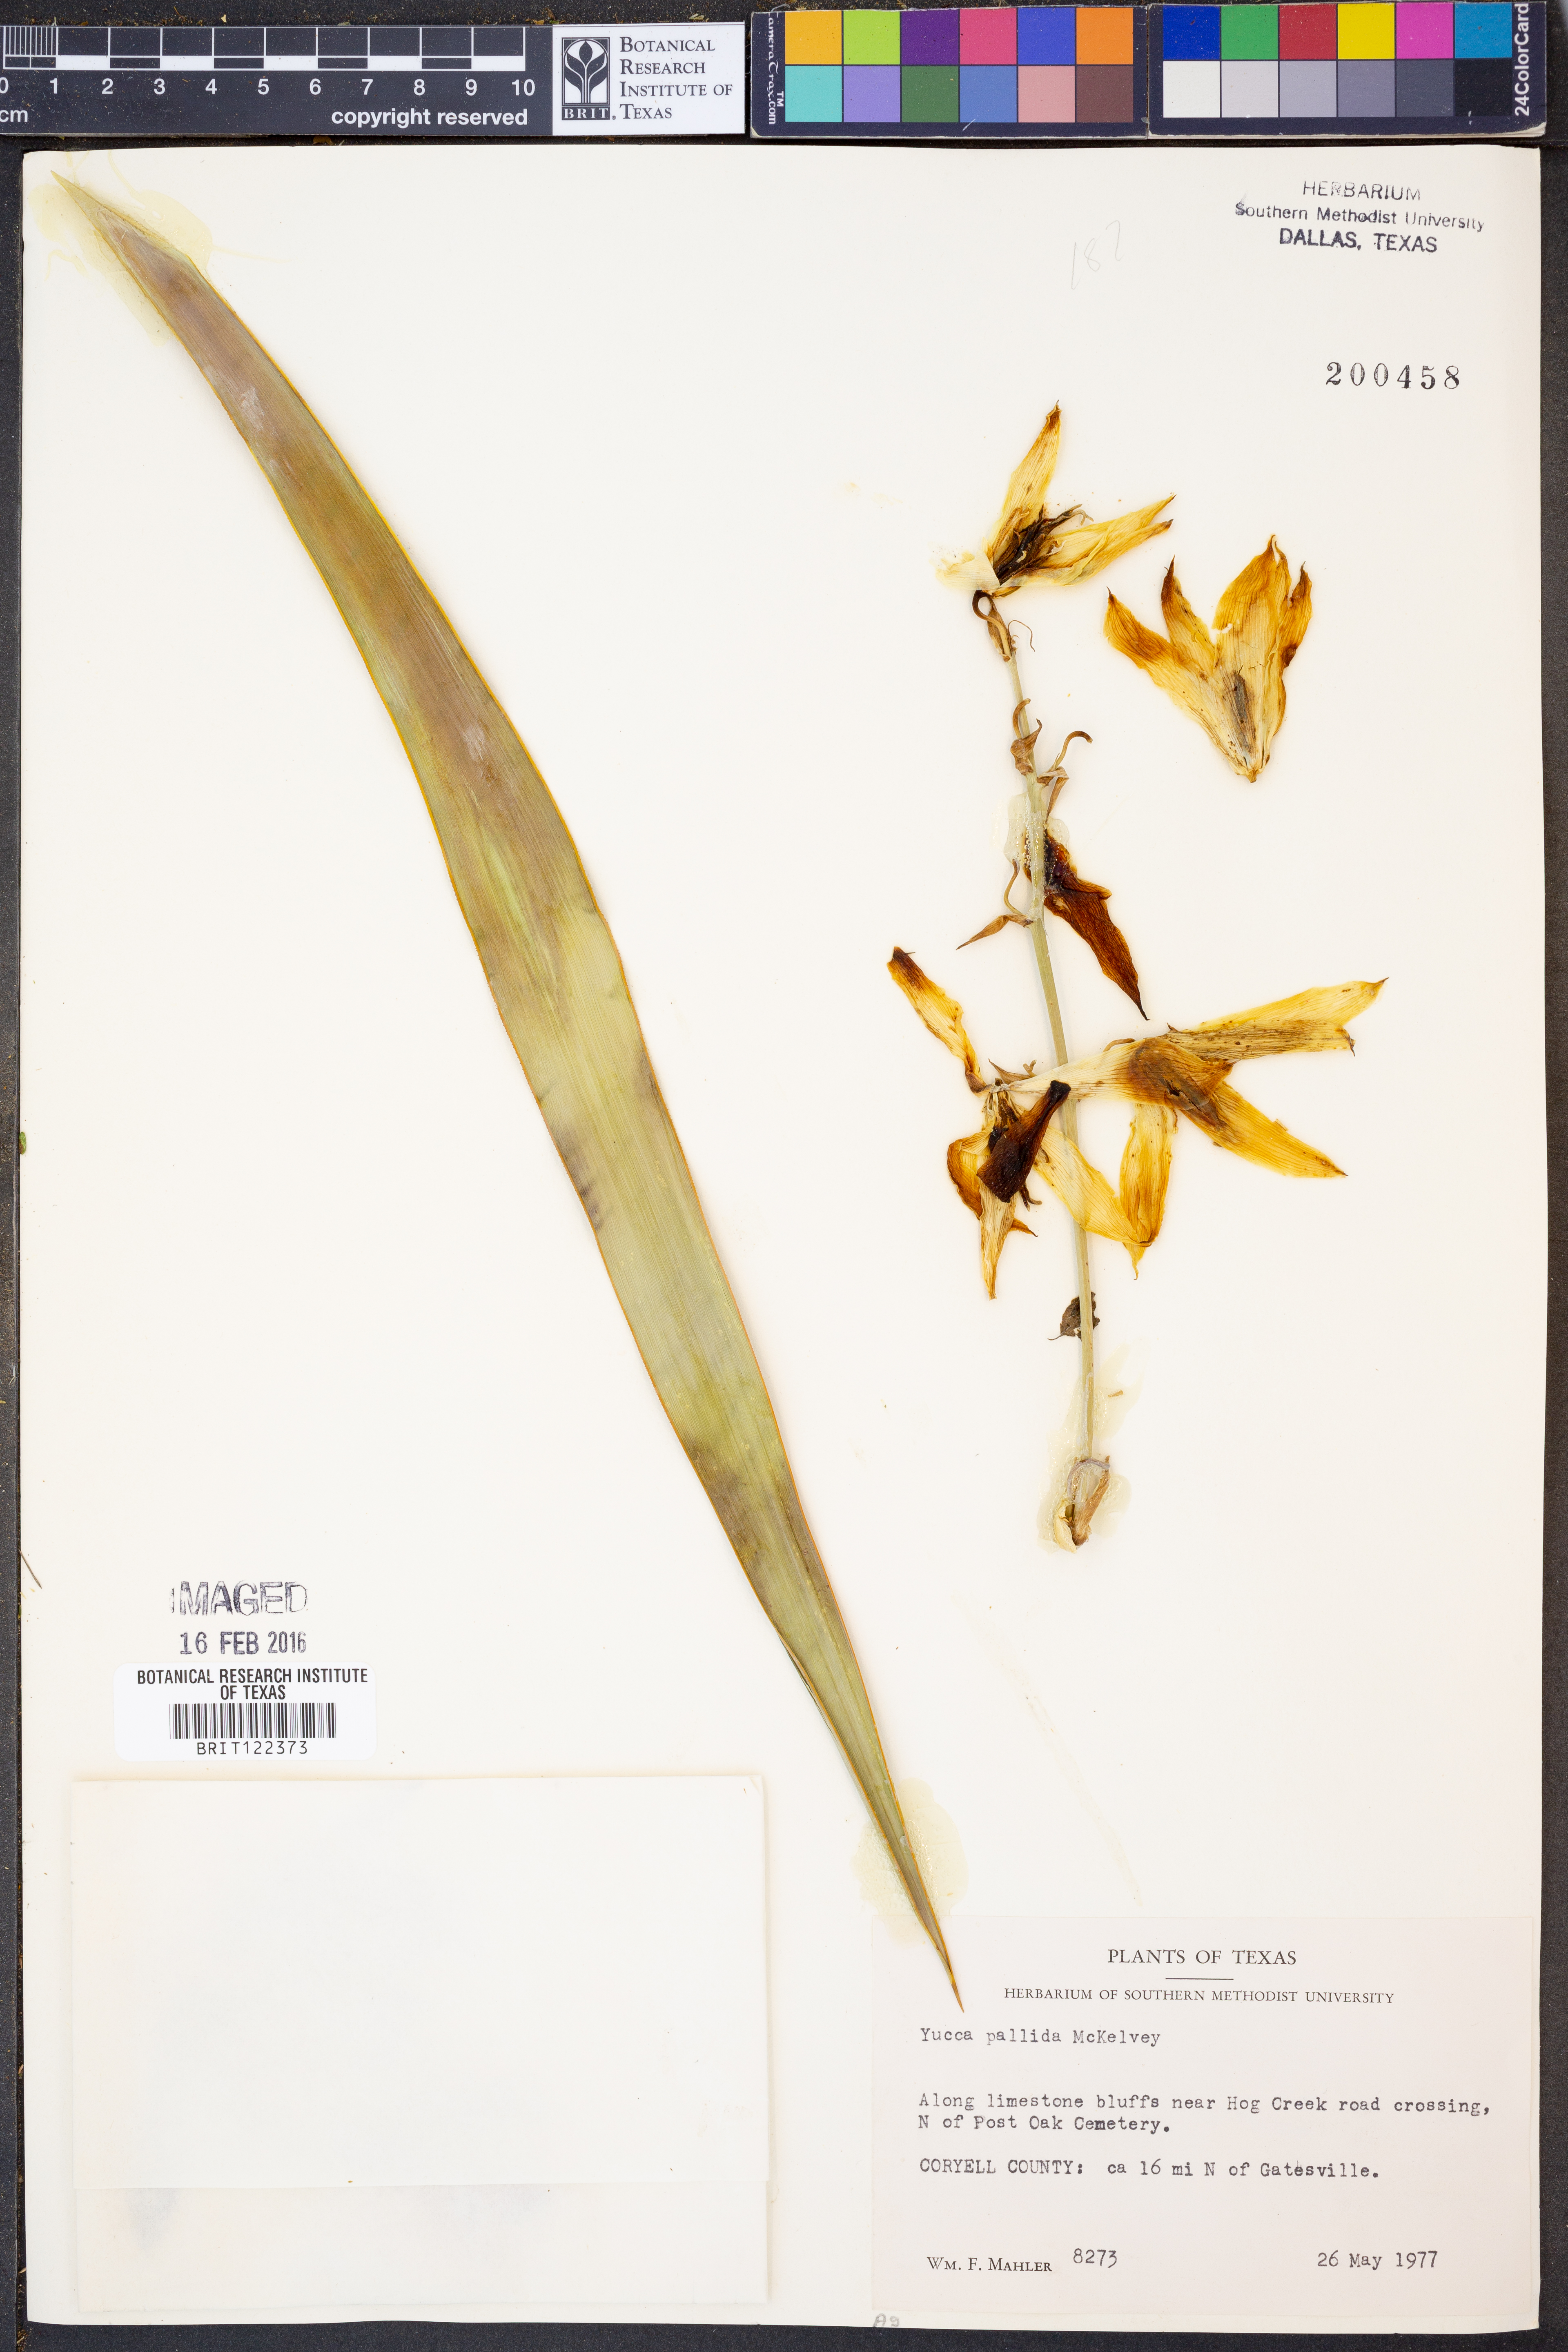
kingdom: Plantae
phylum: Tracheophyta
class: Liliopsida
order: Asparagales
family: Asparagaceae
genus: Yucca
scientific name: Yucca pallida
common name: Pale leaf yucca
